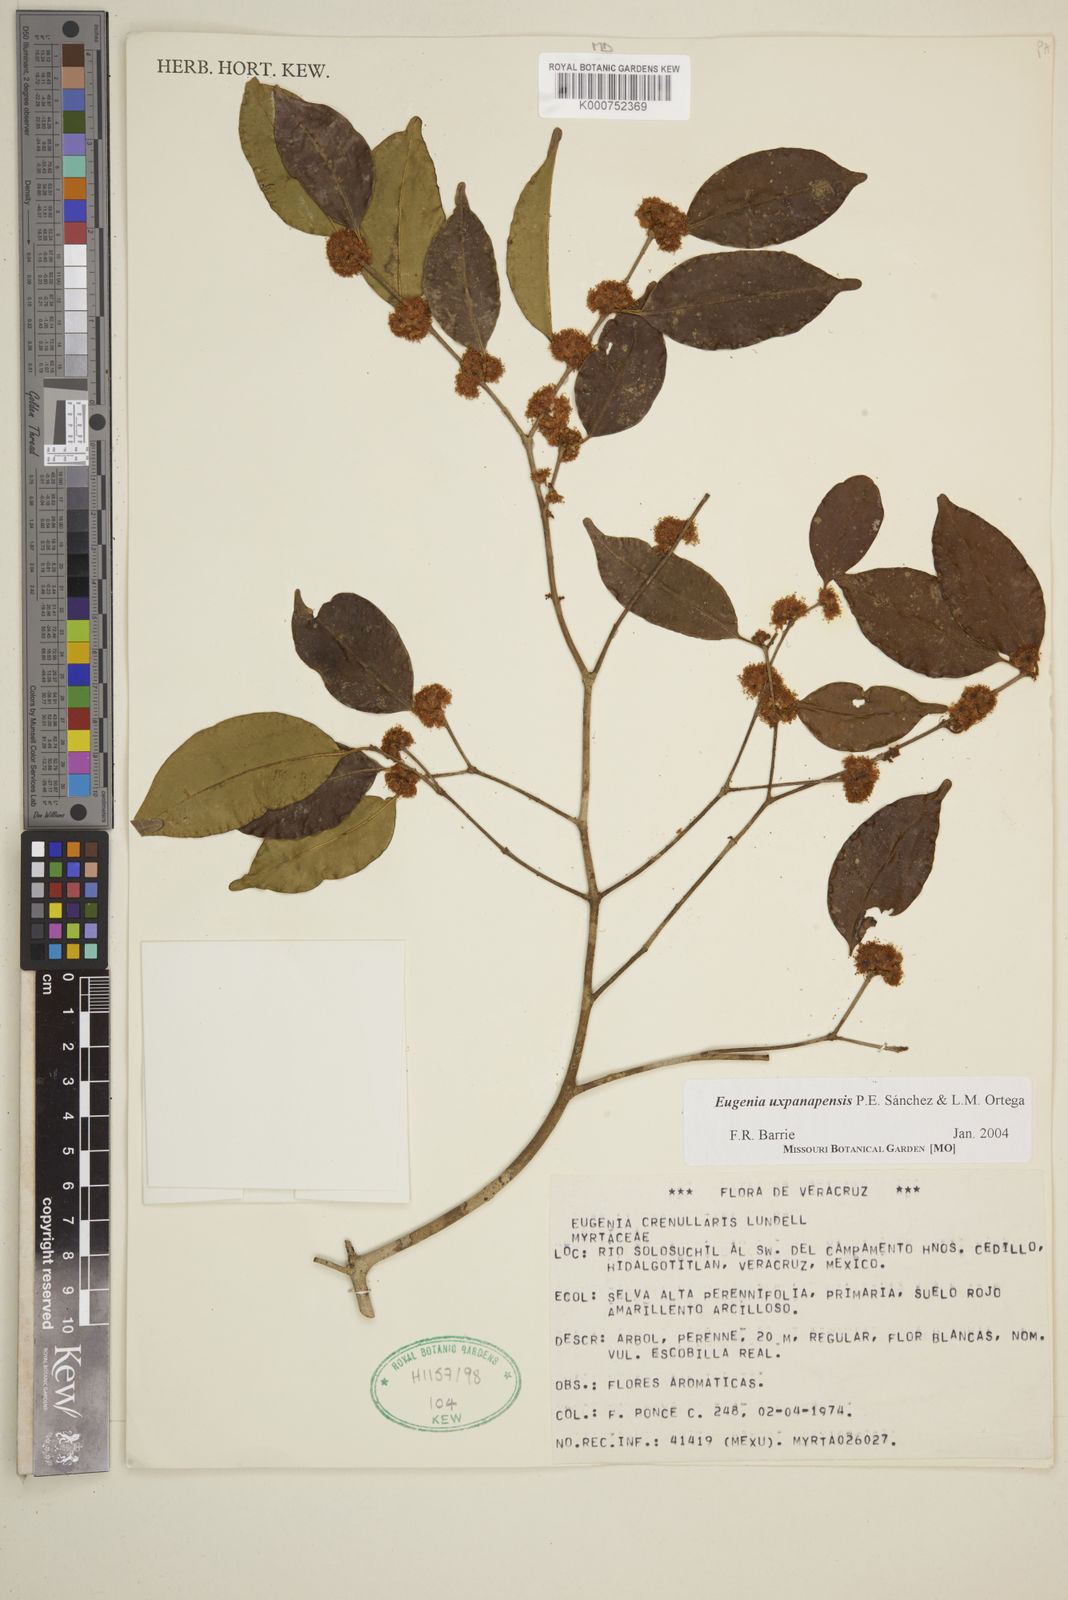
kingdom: Plantae
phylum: Tracheophyta
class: Magnoliopsida
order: Myrtales
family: Myrtaceae
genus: Eugenia
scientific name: Eugenia
